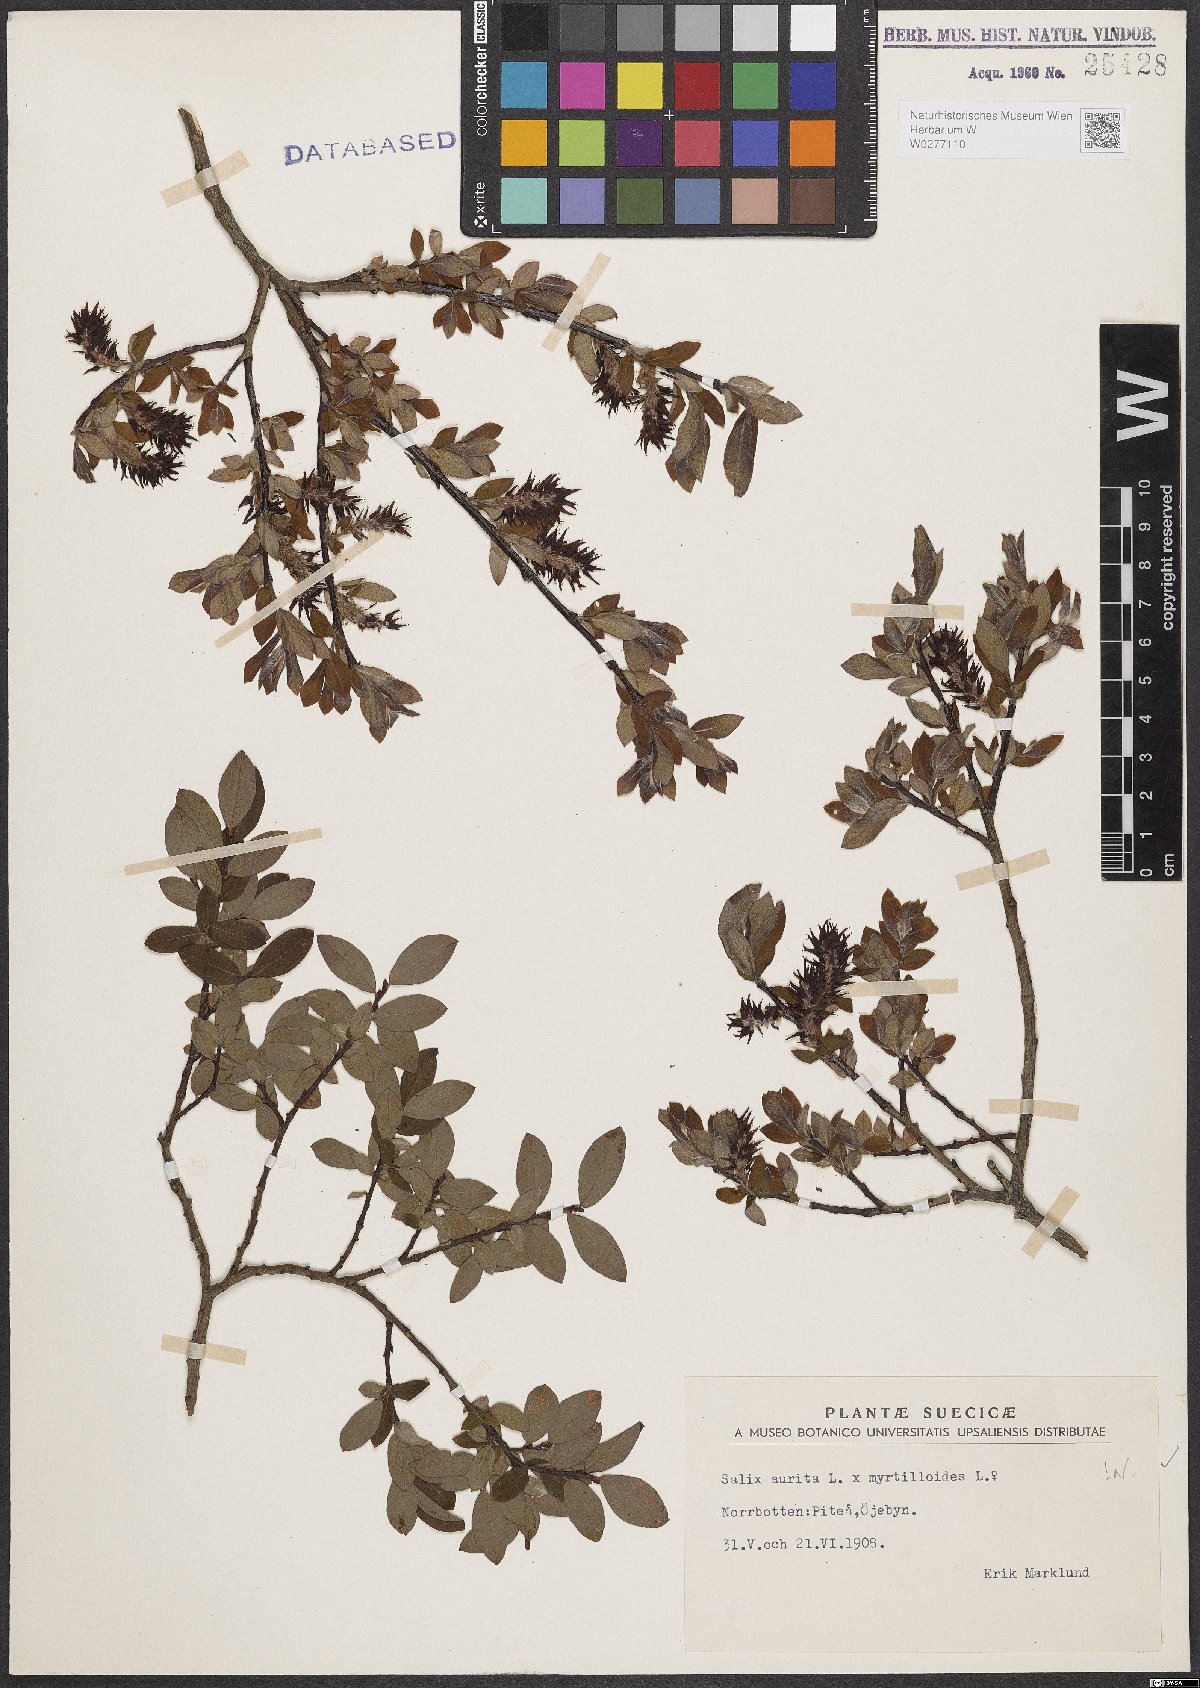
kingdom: Plantae
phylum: Tracheophyta
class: Magnoliopsida
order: Malpighiales
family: Salicaceae
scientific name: Salicaceae
